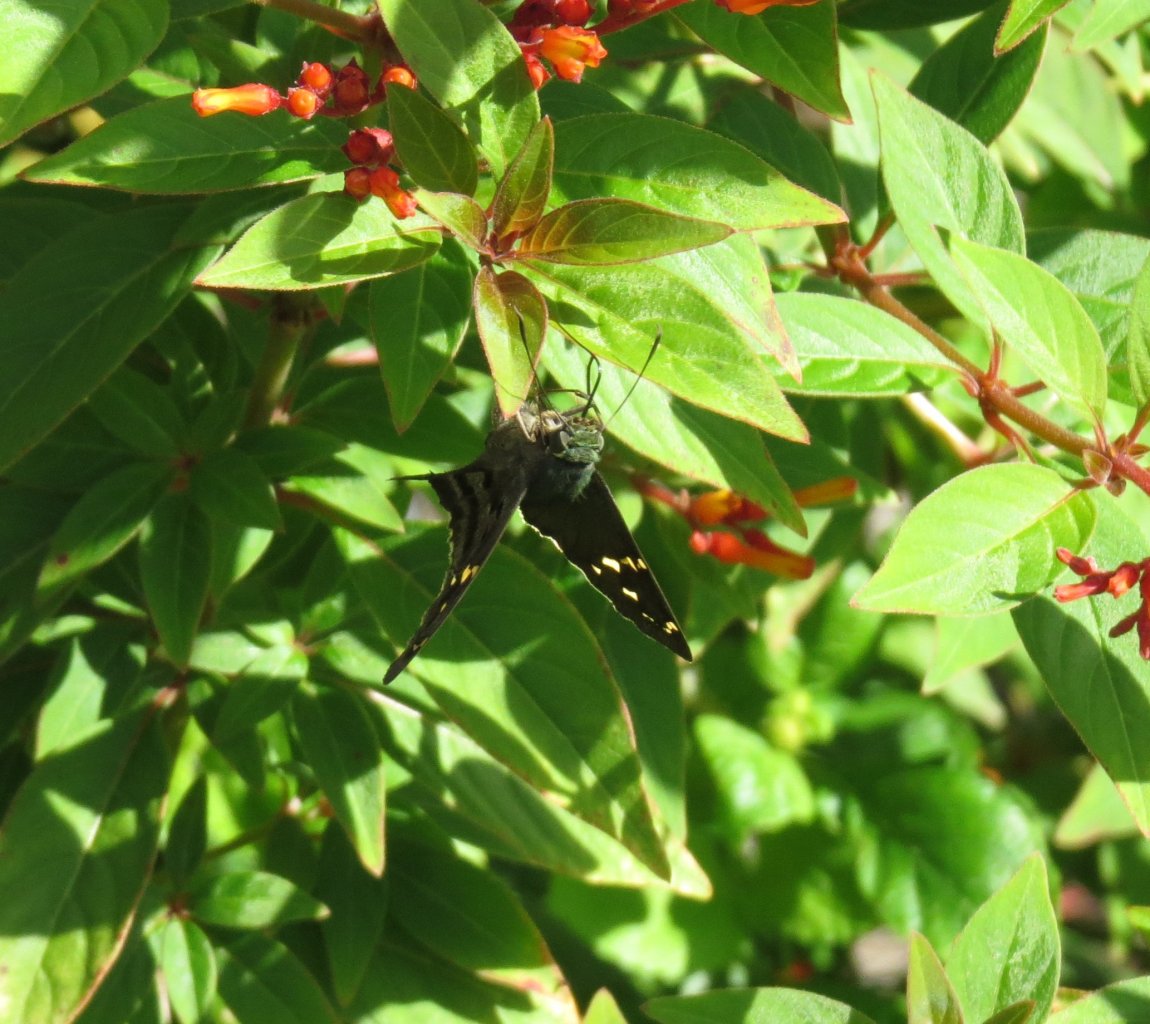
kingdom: Animalia
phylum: Arthropoda
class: Insecta
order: Lepidoptera
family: Hesperiidae
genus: Urbanus
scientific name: Urbanus proteus
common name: Long-tailed Skipper
